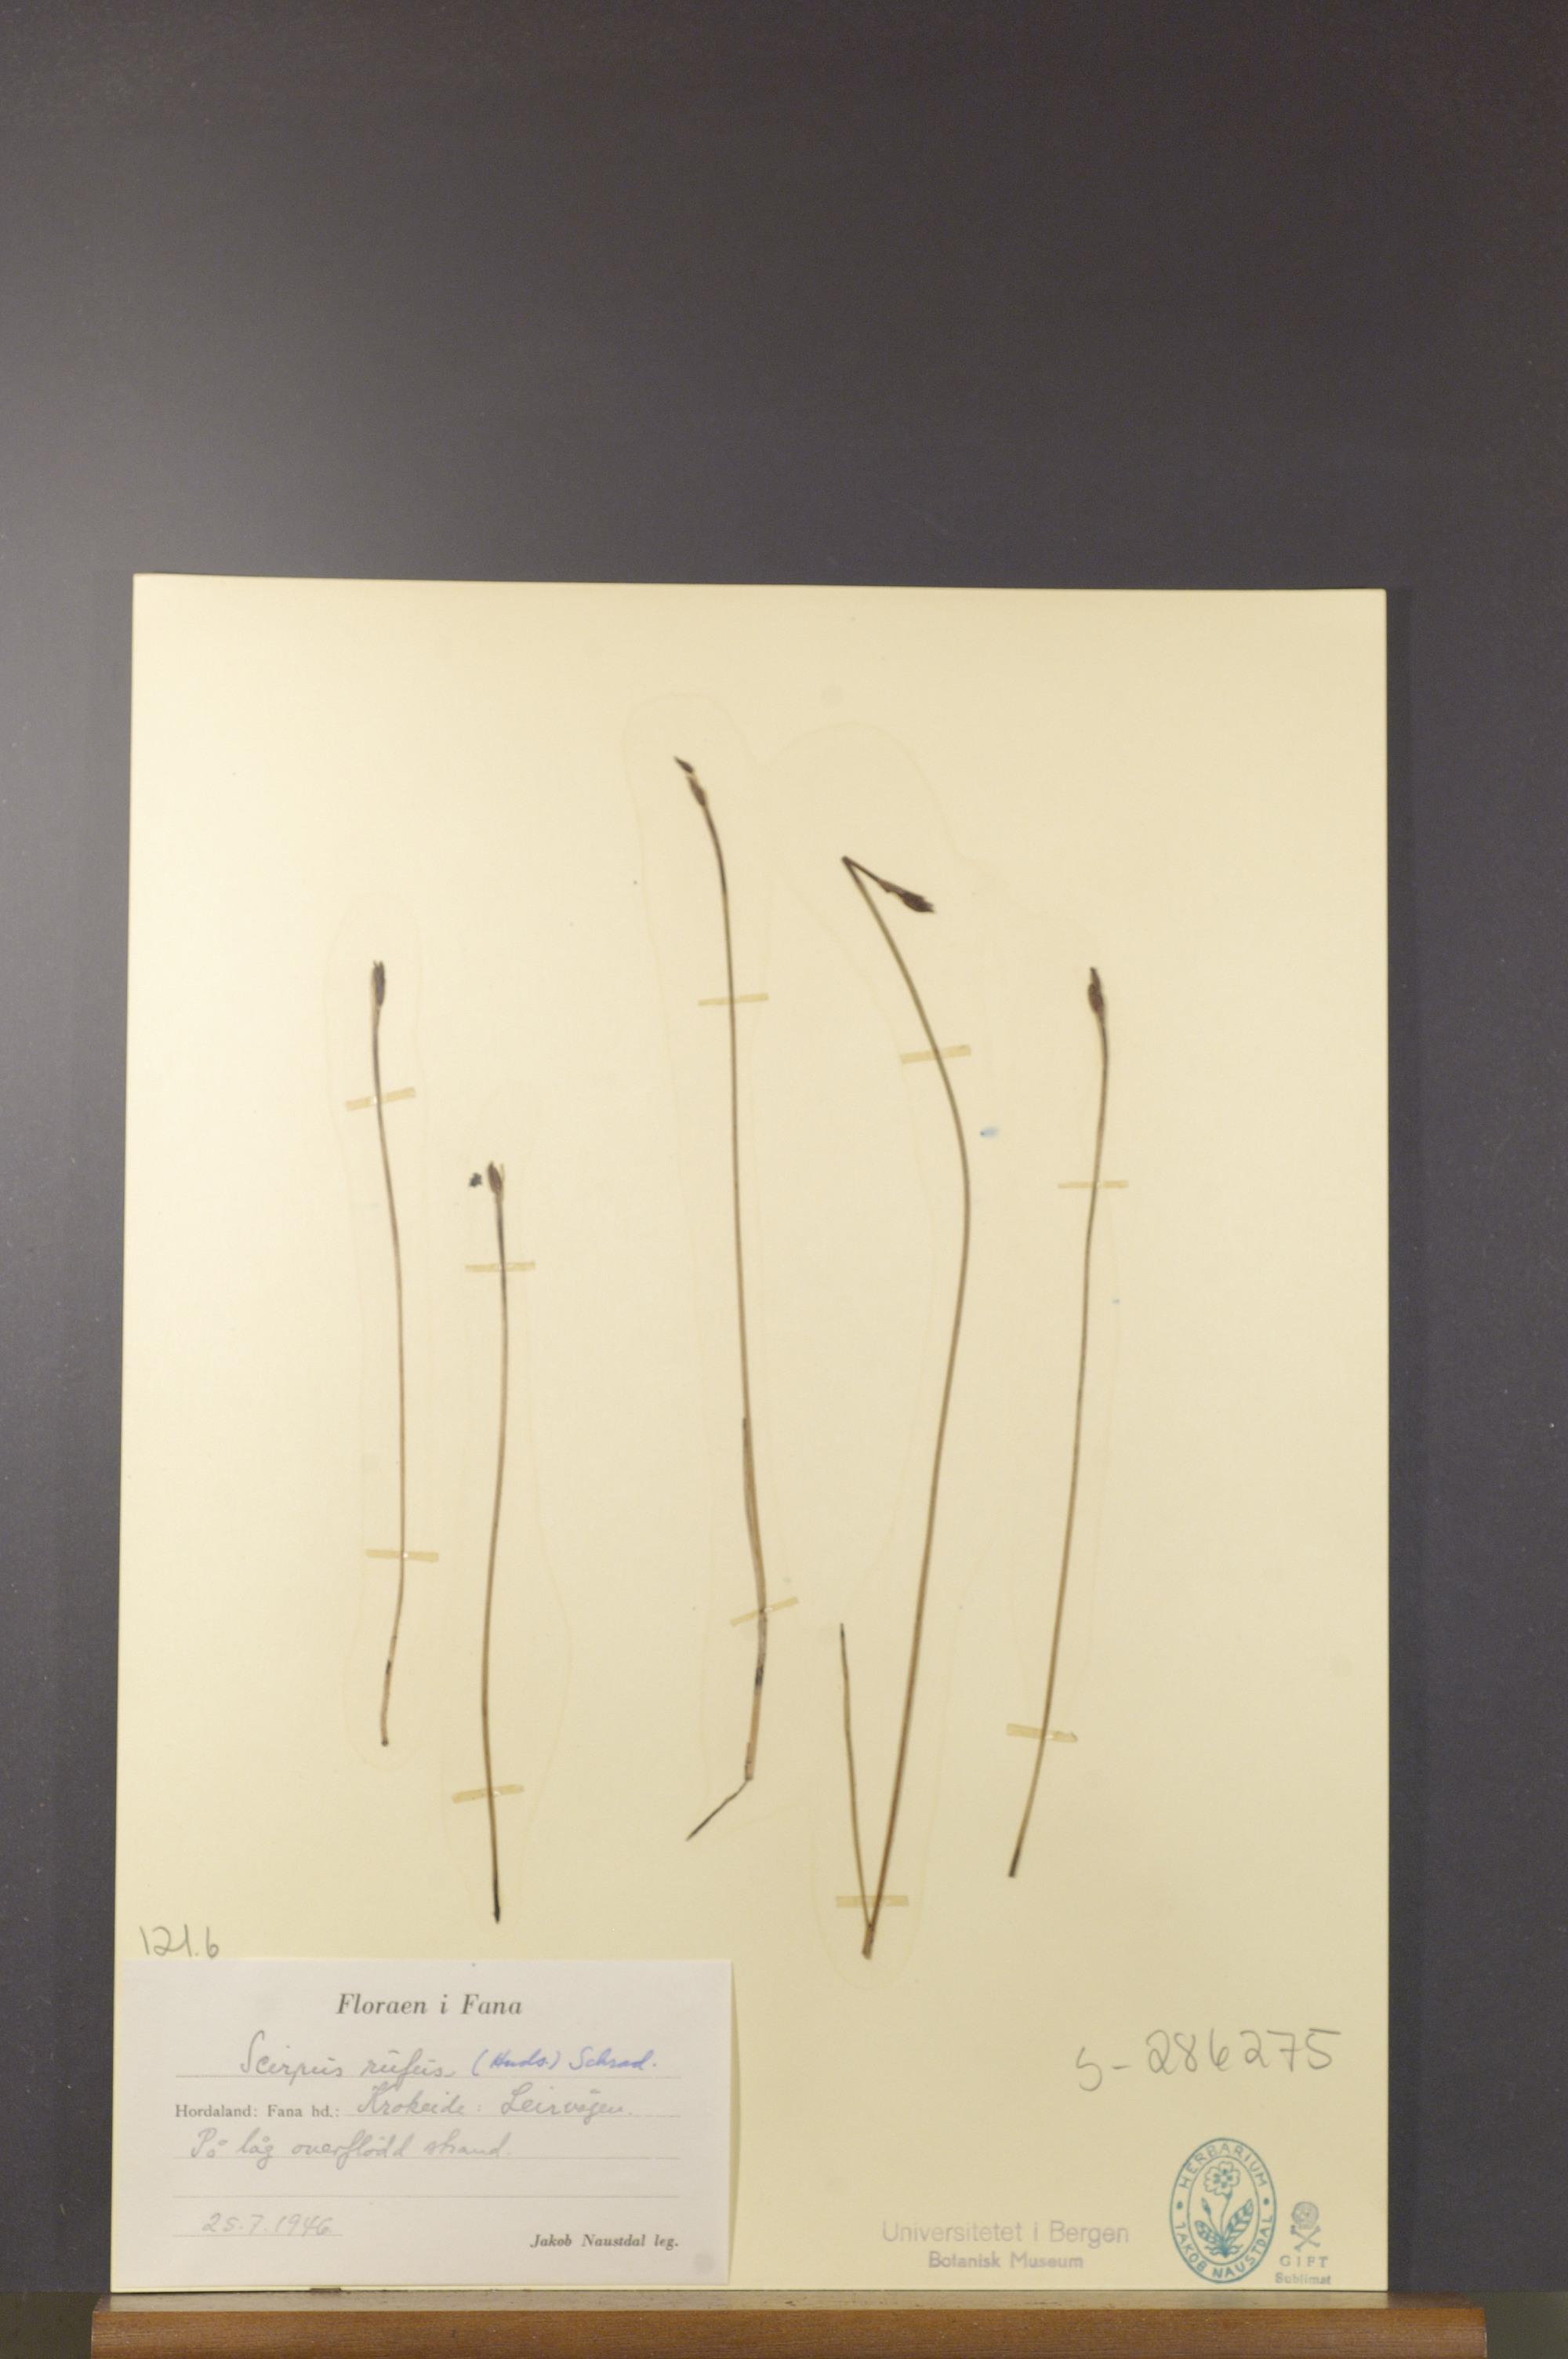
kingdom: Plantae
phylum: Tracheophyta
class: Liliopsida
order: Poales
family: Cyperaceae
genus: Blysmus
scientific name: Blysmus rufus
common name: Saltmarsh flat-sedge
